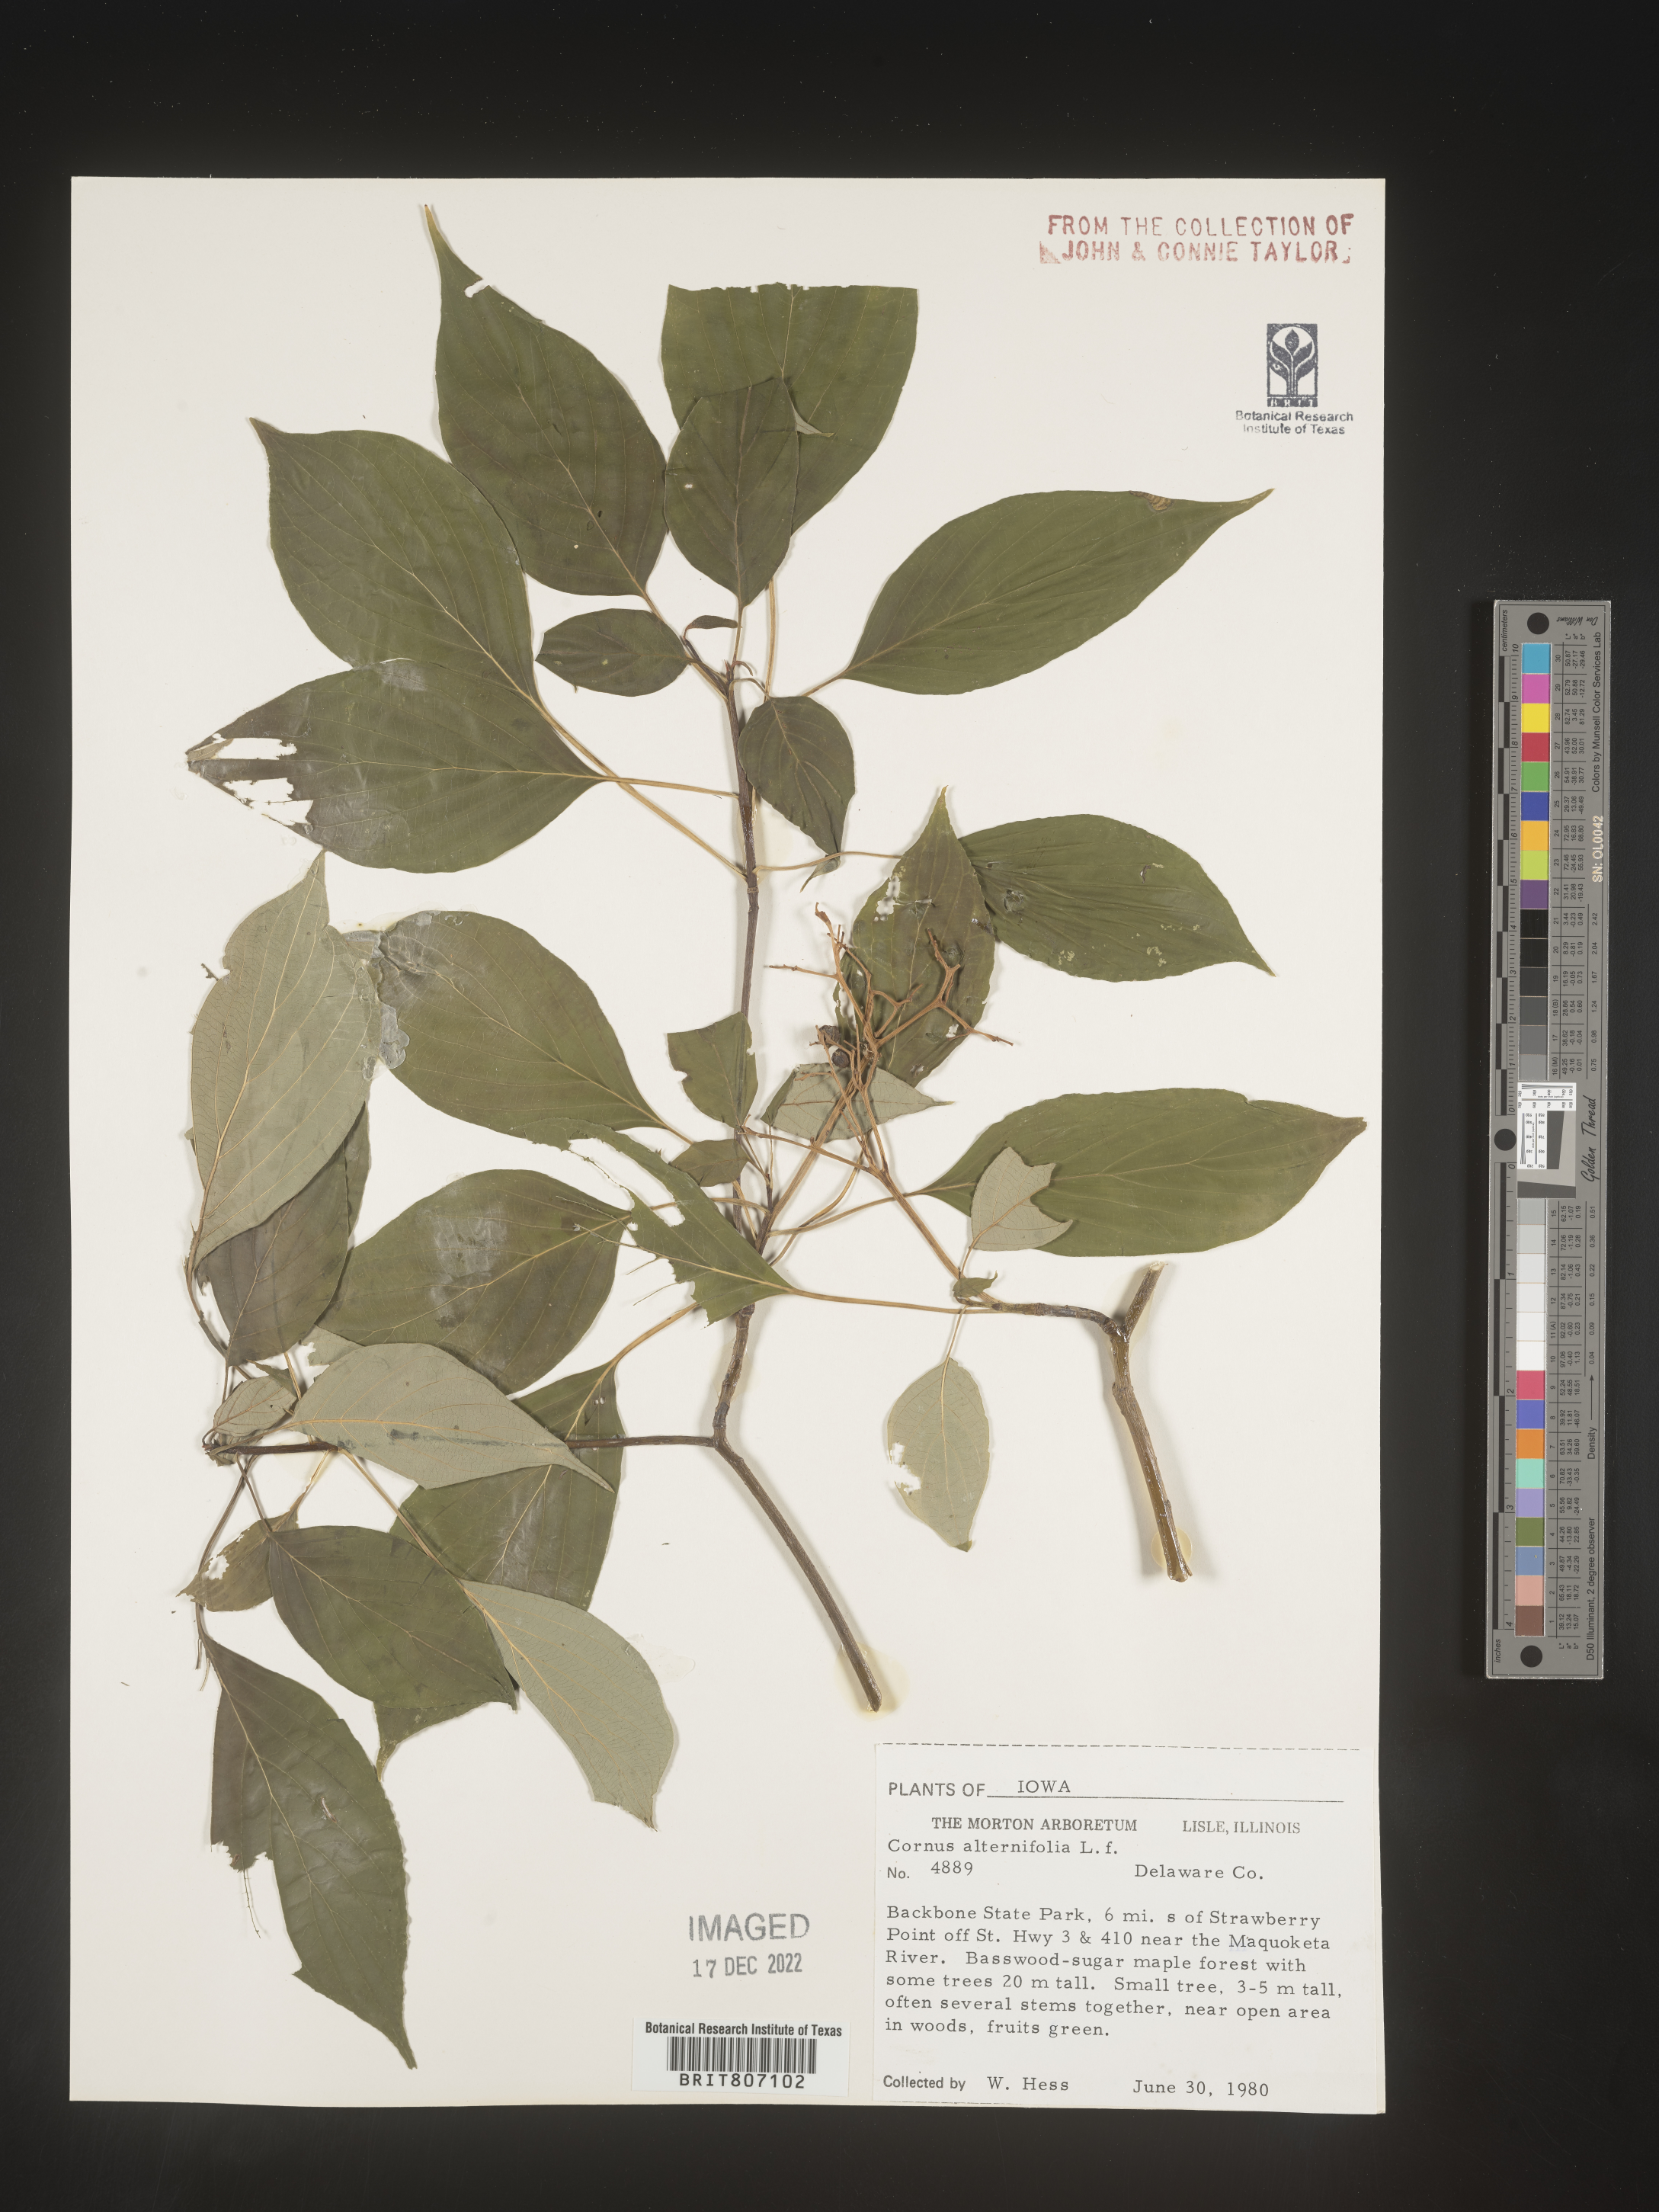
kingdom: Plantae
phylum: Tracheophyta
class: Magnoliopsida
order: Cornales
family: Cornaceae
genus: Cornus
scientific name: Cornus alternifolia
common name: Pagoda dogwood
